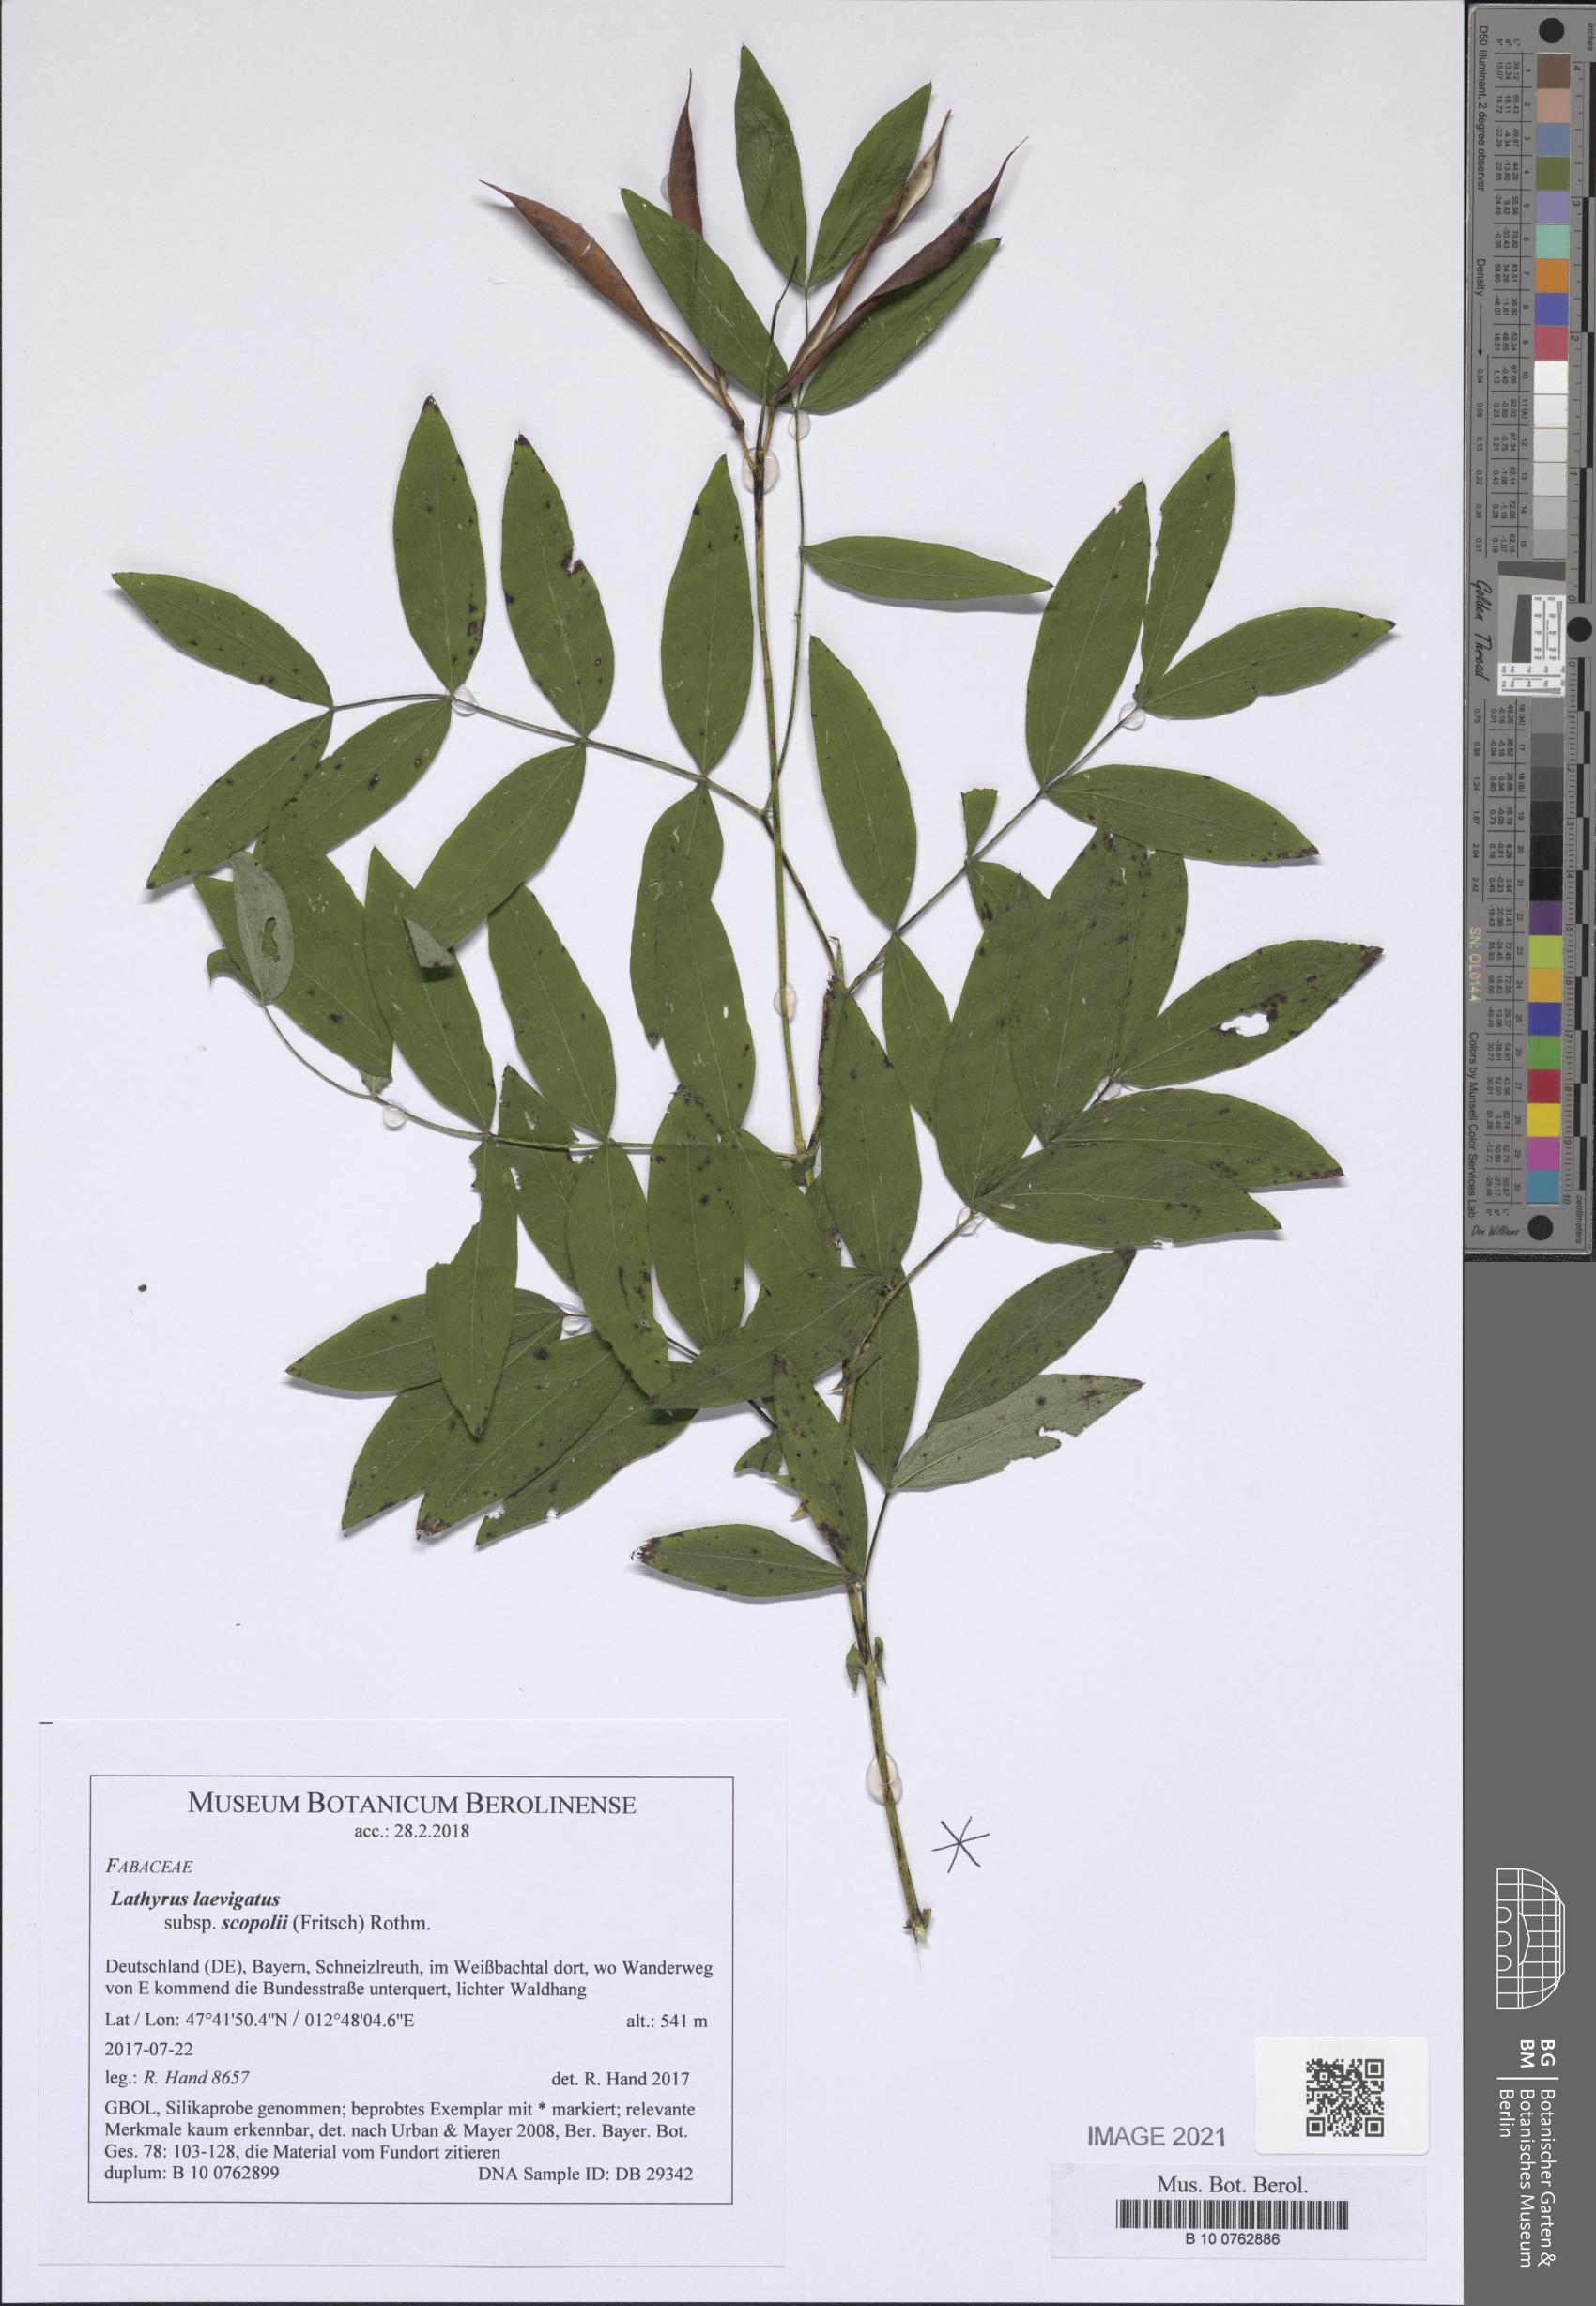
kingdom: Plantae
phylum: Tracheophyta
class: Magnoliopsida
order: Fabales
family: Fabaceae
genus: Lathyrus
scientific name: Lathyrus laevigatus
